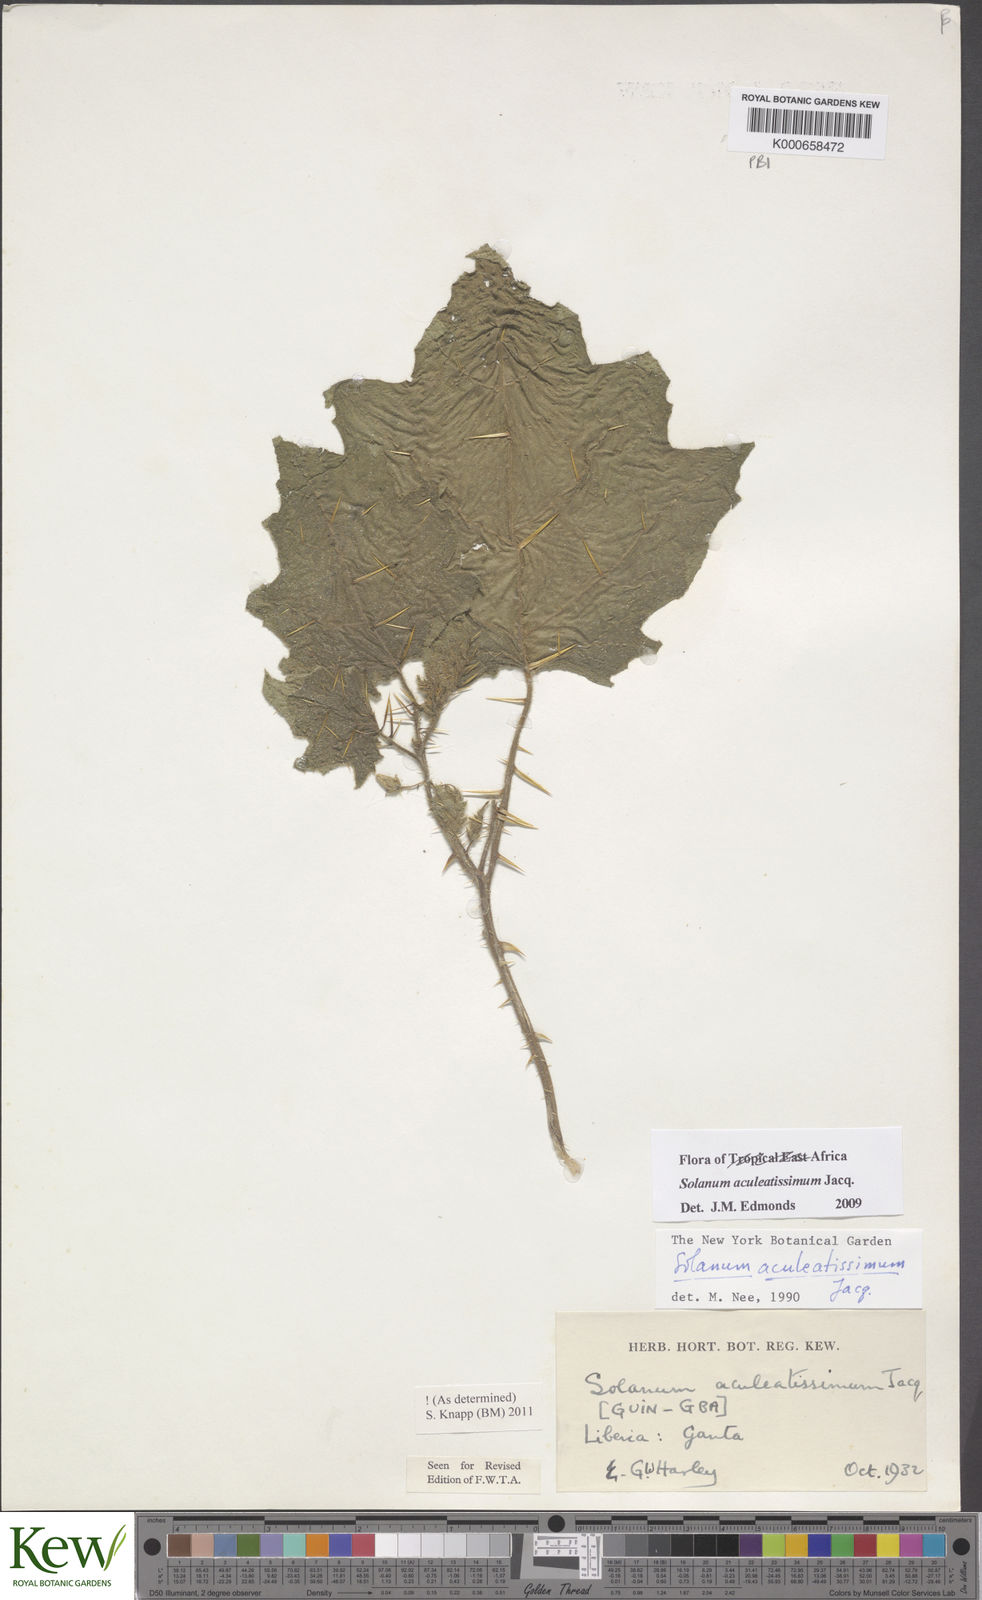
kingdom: Plantae
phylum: Tracheophyta
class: Magnoliopsida
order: Solanales
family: Solanaceae
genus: Solanum
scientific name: Solanum aculeatissimum
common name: Dutch eggplant
